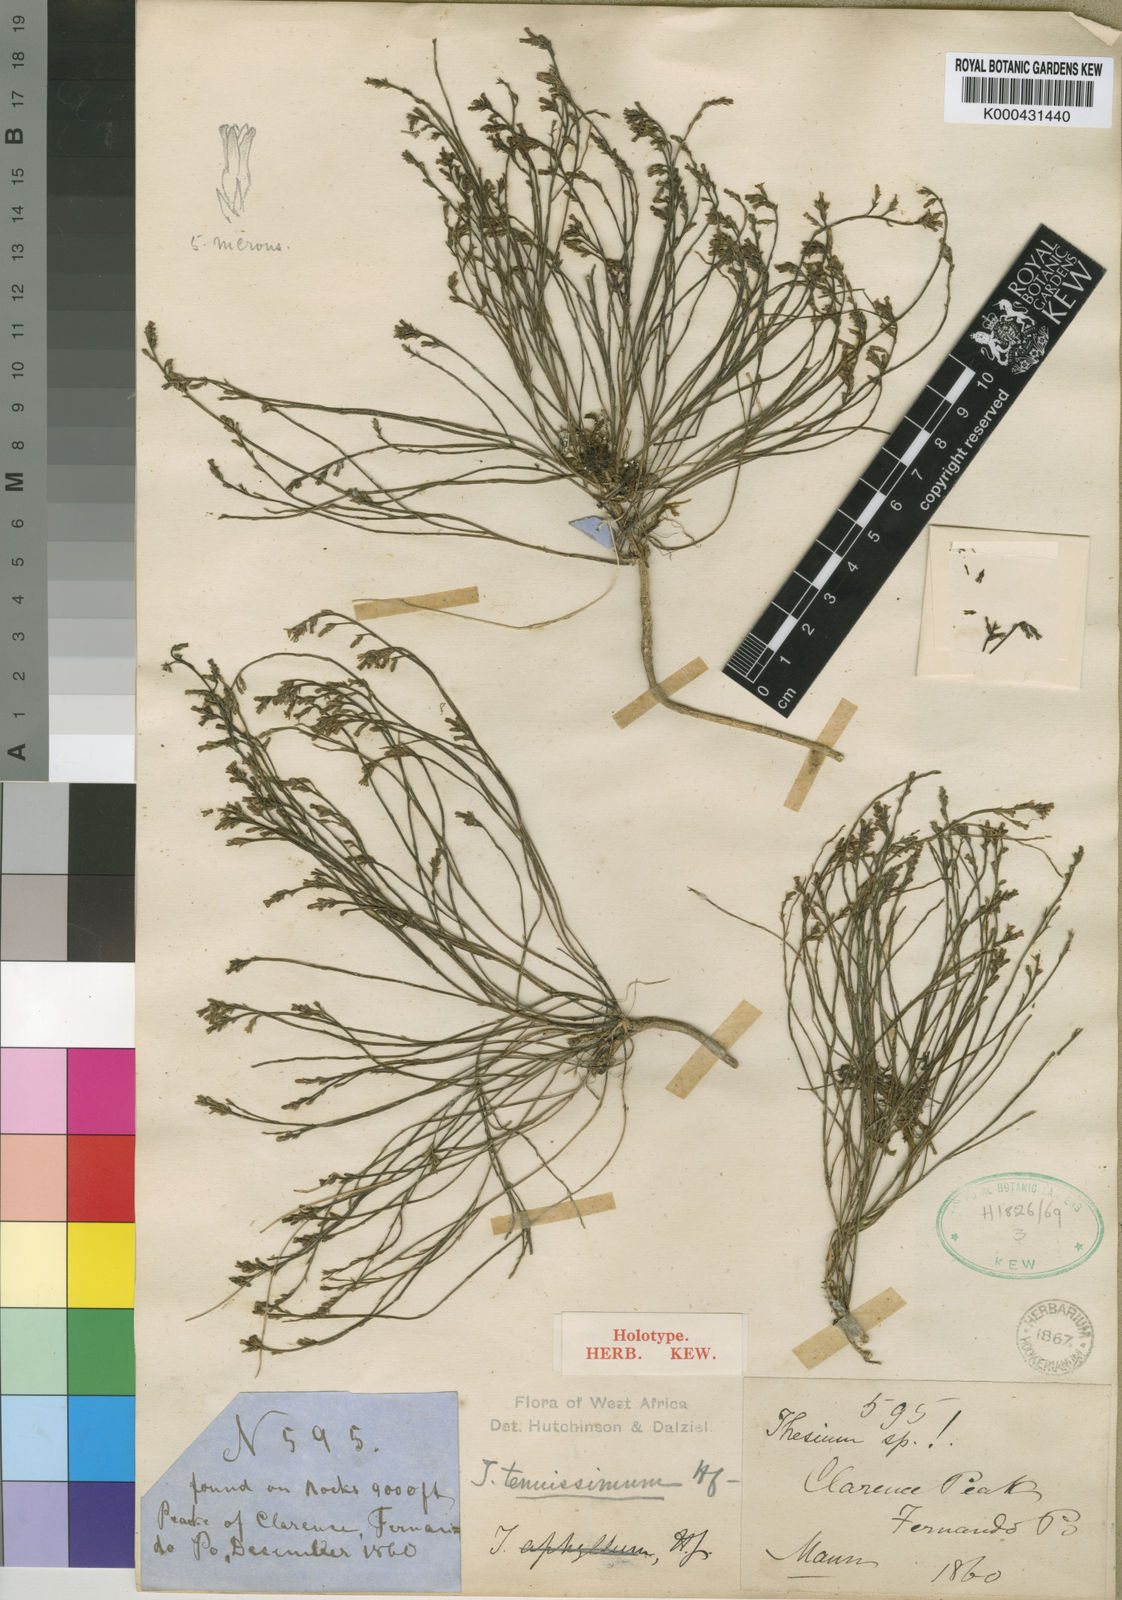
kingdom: Plantae
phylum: Tracheophyta
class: Magnoliopsida
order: Santalales
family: Thesiaceae
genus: Thesium
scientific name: Thesium tenuissimum
